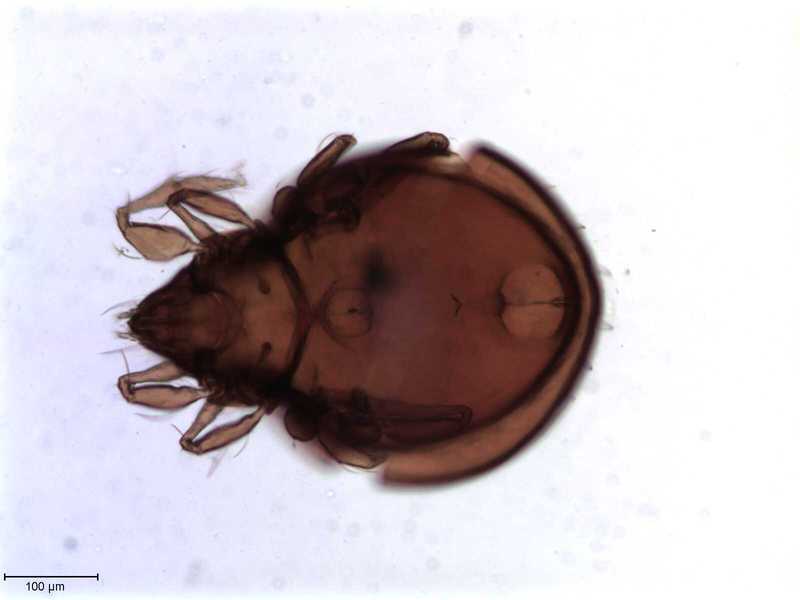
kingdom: Animalia
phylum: Arthropoda
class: Arachnida
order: Sarcoptiformes
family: Oribatulidae
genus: Oribatula
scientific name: Oribatula
